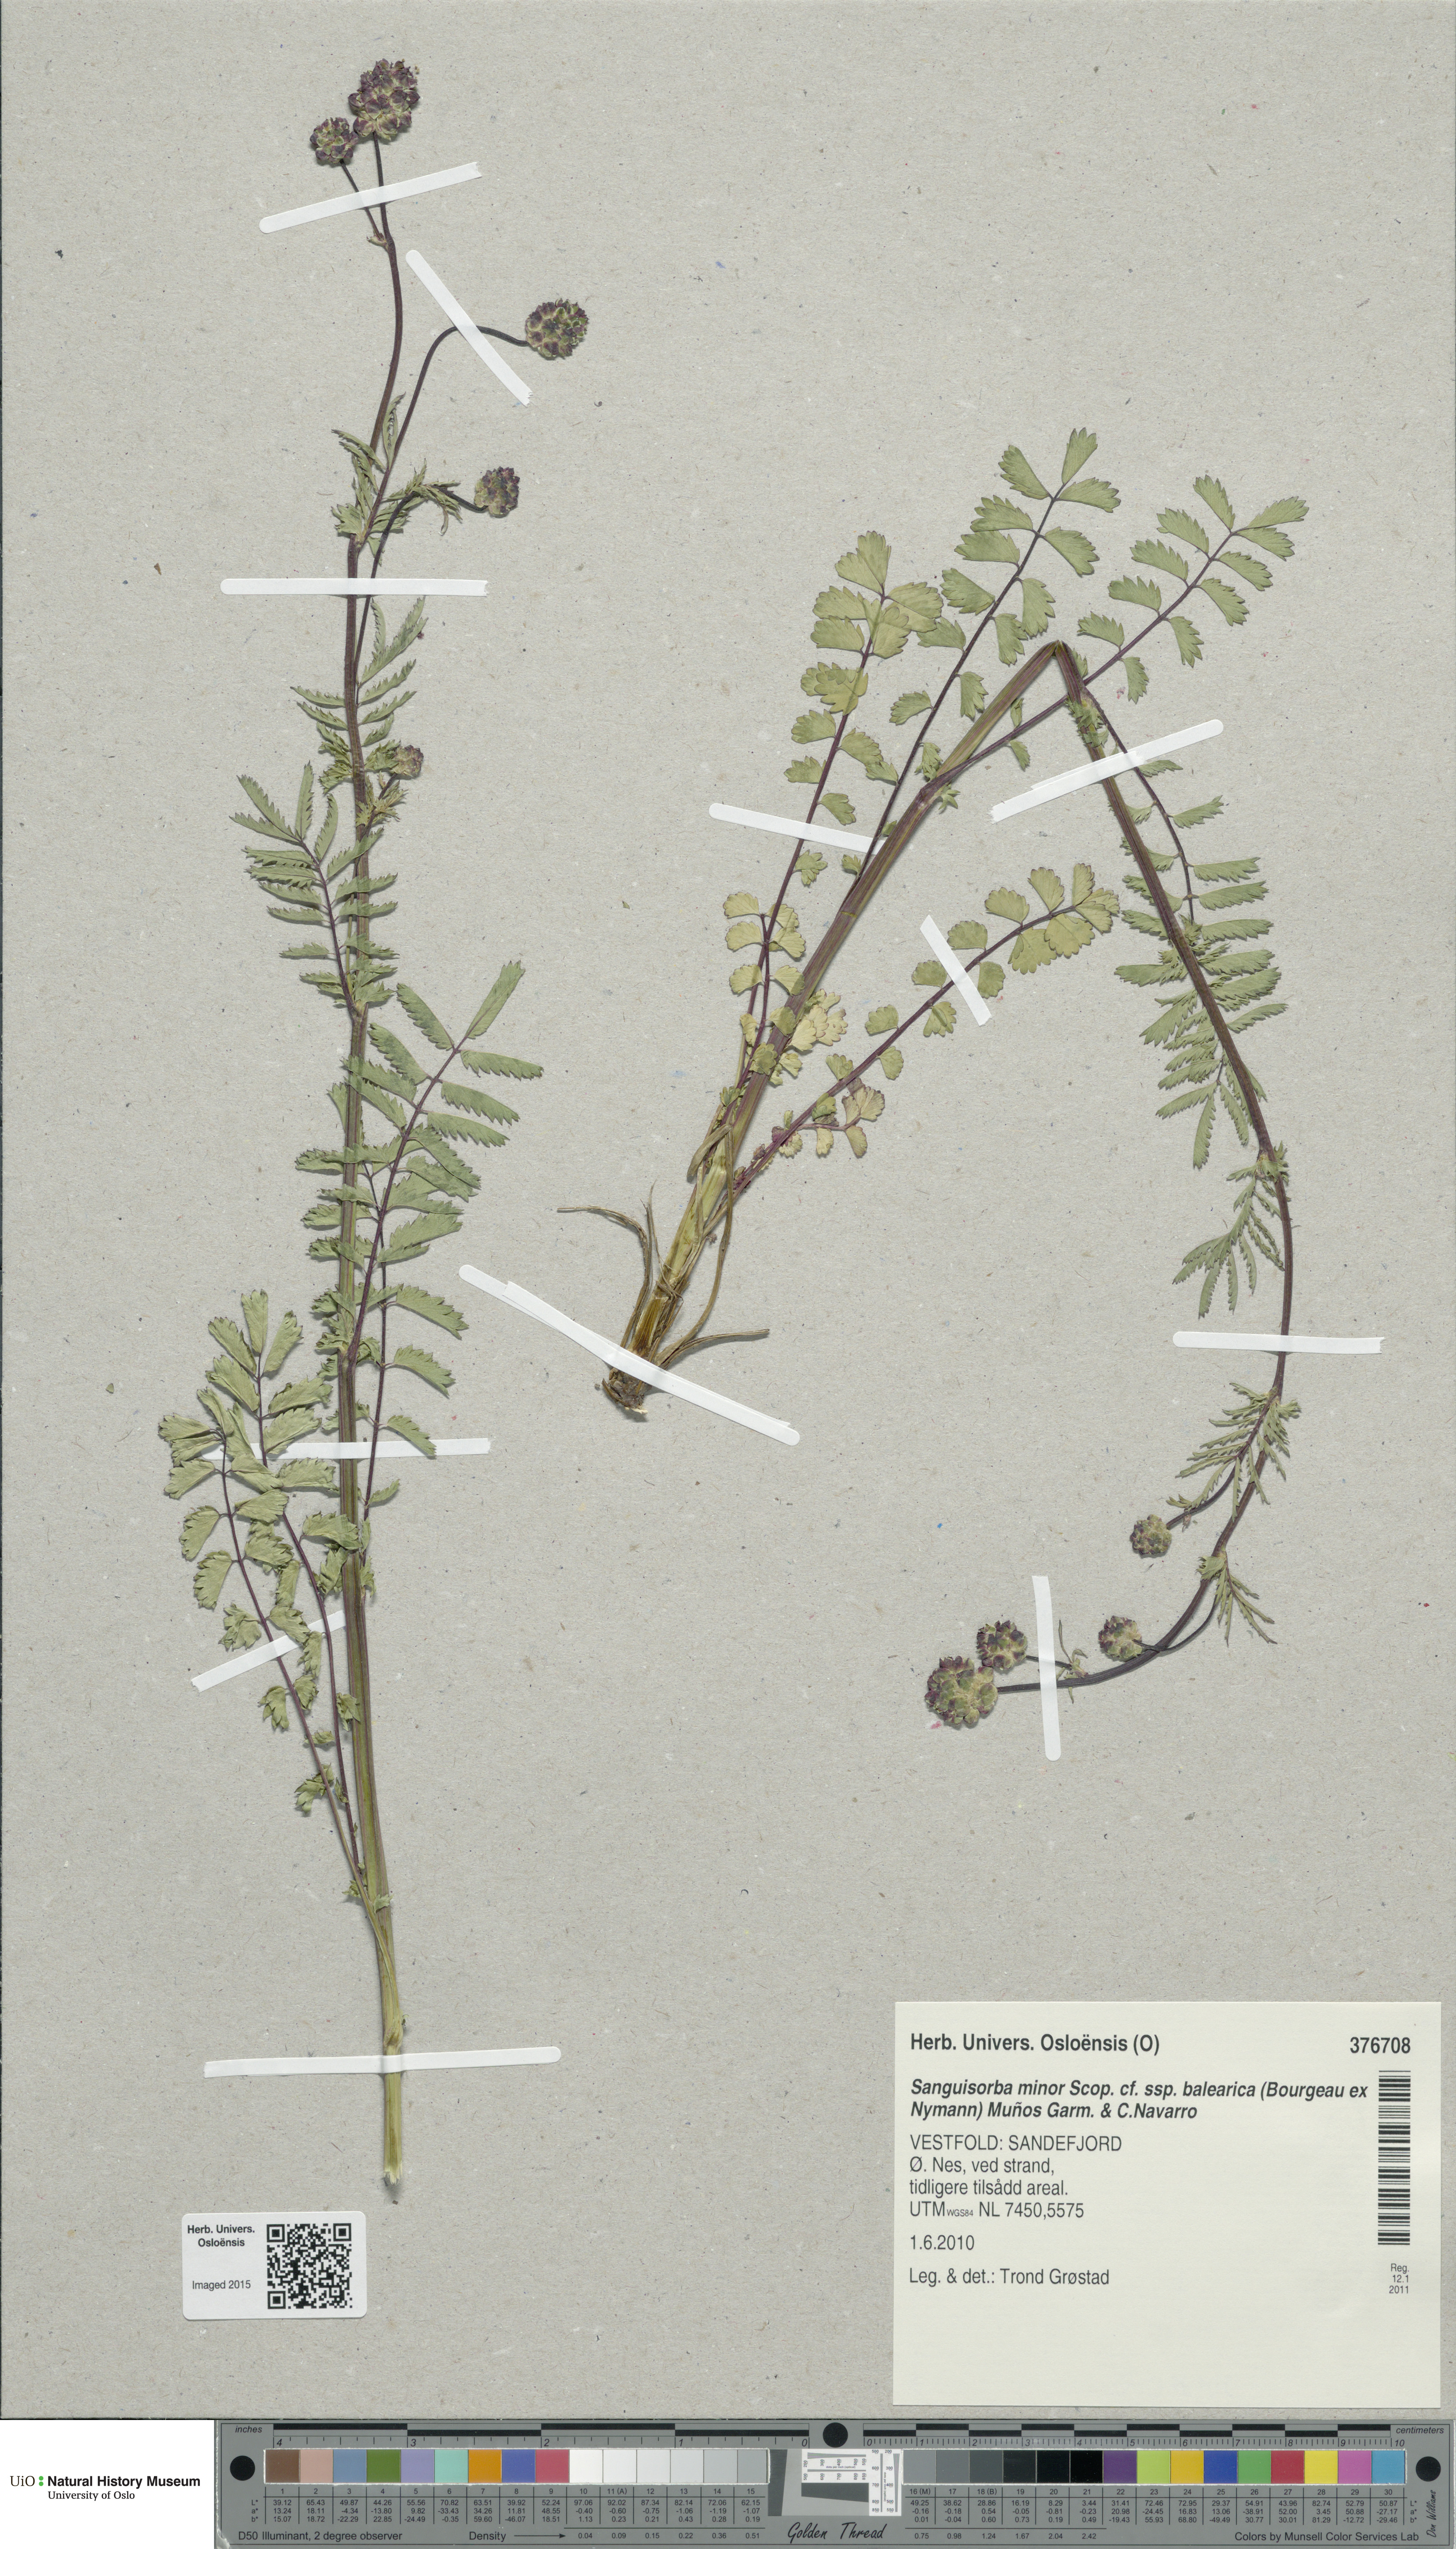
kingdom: Plantae
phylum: Tracheophyta
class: Magnoliopsida
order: Rosales
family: Rosaceae
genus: Poterium
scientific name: Poterium sanguisorba
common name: Salad burnet
